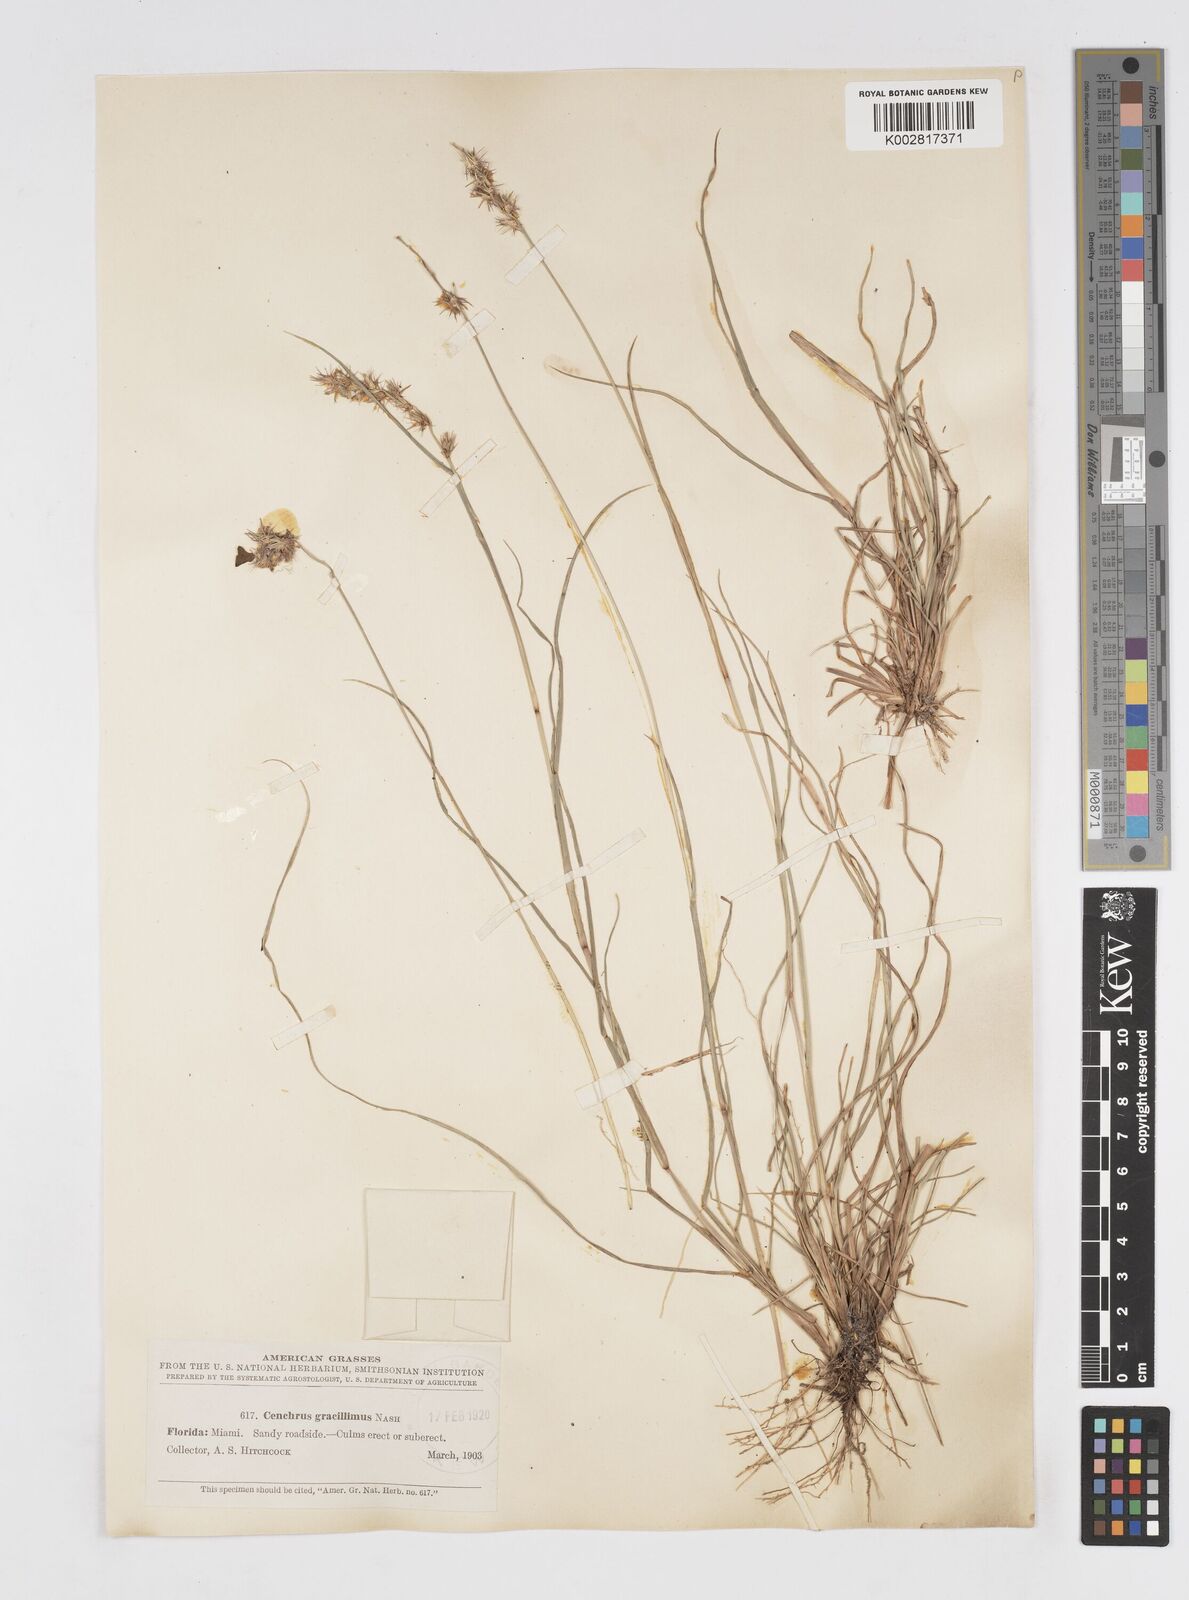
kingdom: Plantae
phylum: Tracheophyta
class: Liliopsida
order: Poales
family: Poaceae
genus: Cenchrus
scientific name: Cenchrus gracillimus
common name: Slender sandbur
